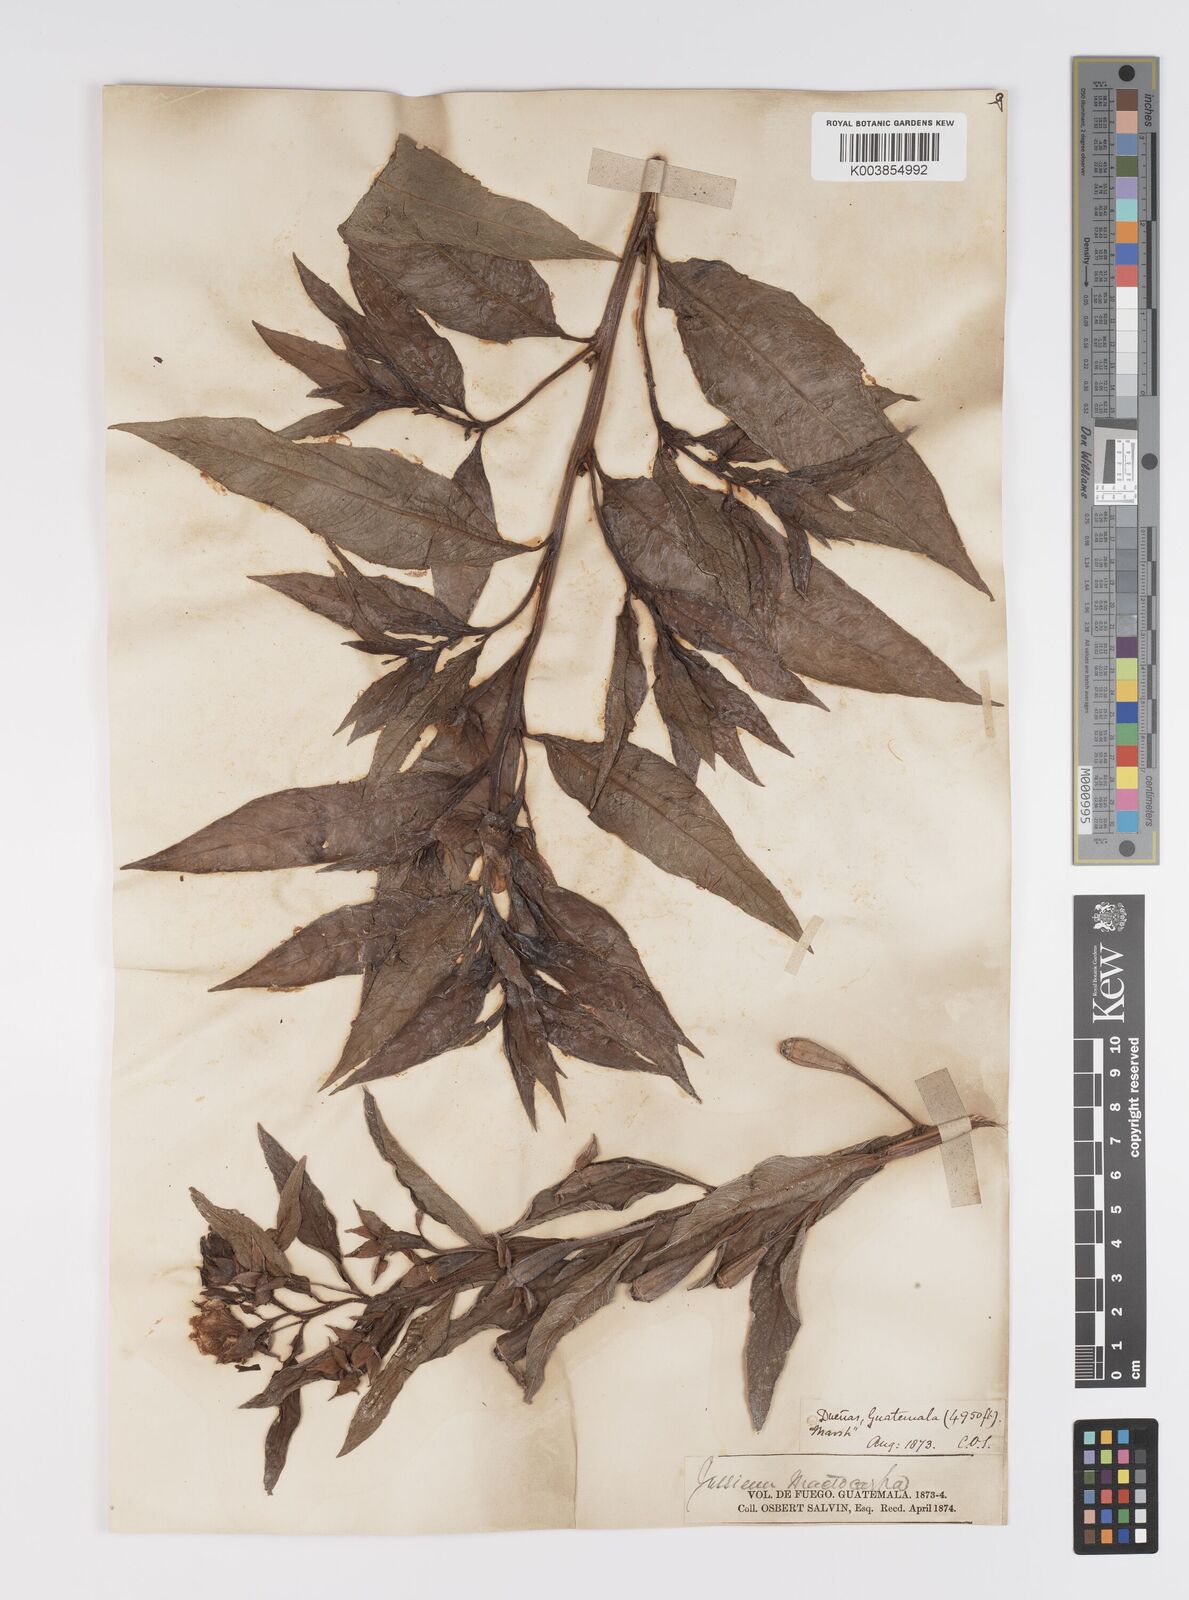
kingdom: Plantae
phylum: Tracheophyta
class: Magnoliopsida
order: Myrtales
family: Onagraceae
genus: Ludwigia
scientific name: Ludwigia peruviana
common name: Peruvian primrose-willow
